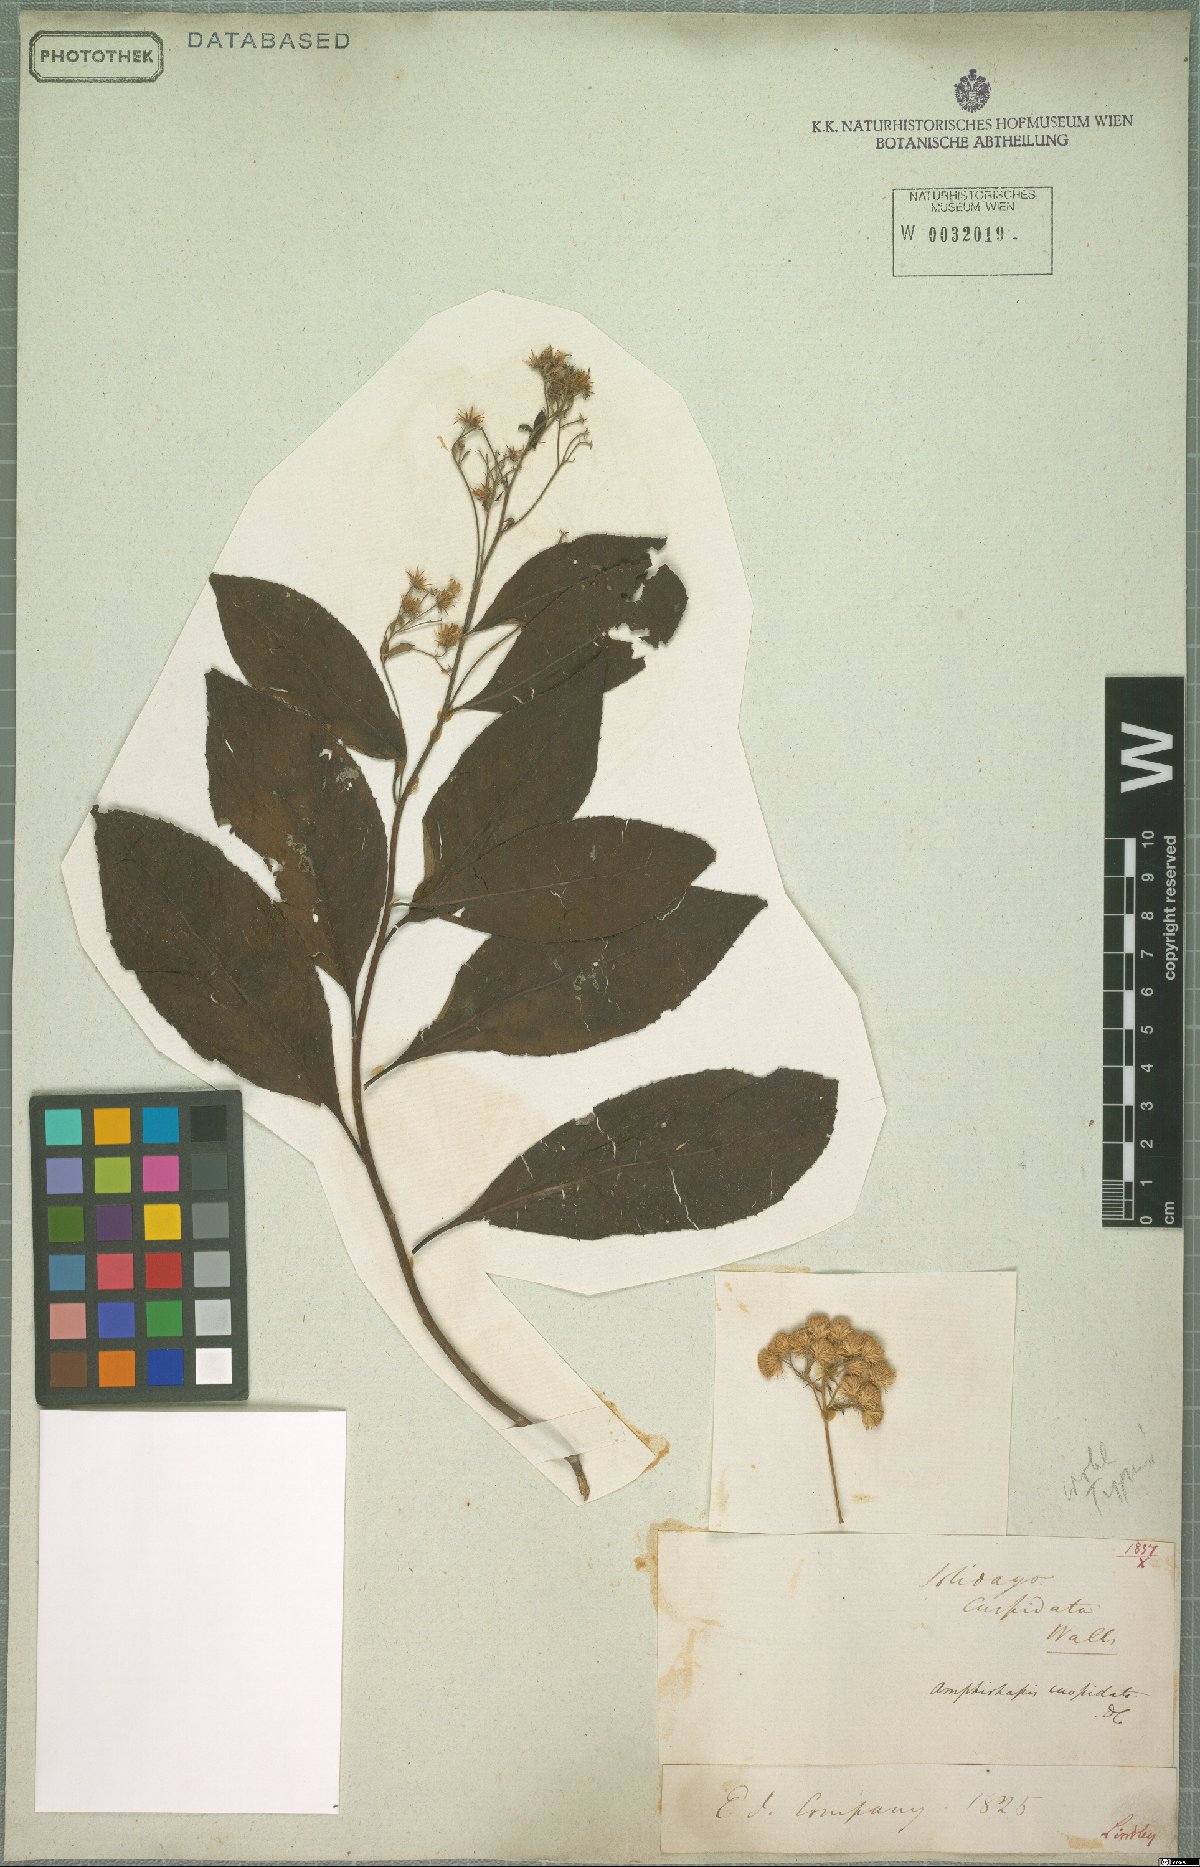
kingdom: Plantae
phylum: Tracheophyta
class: Magnoliopsida
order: Asterales
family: Asteraceae
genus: Duhaldea
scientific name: Duhaldea cuspidata
